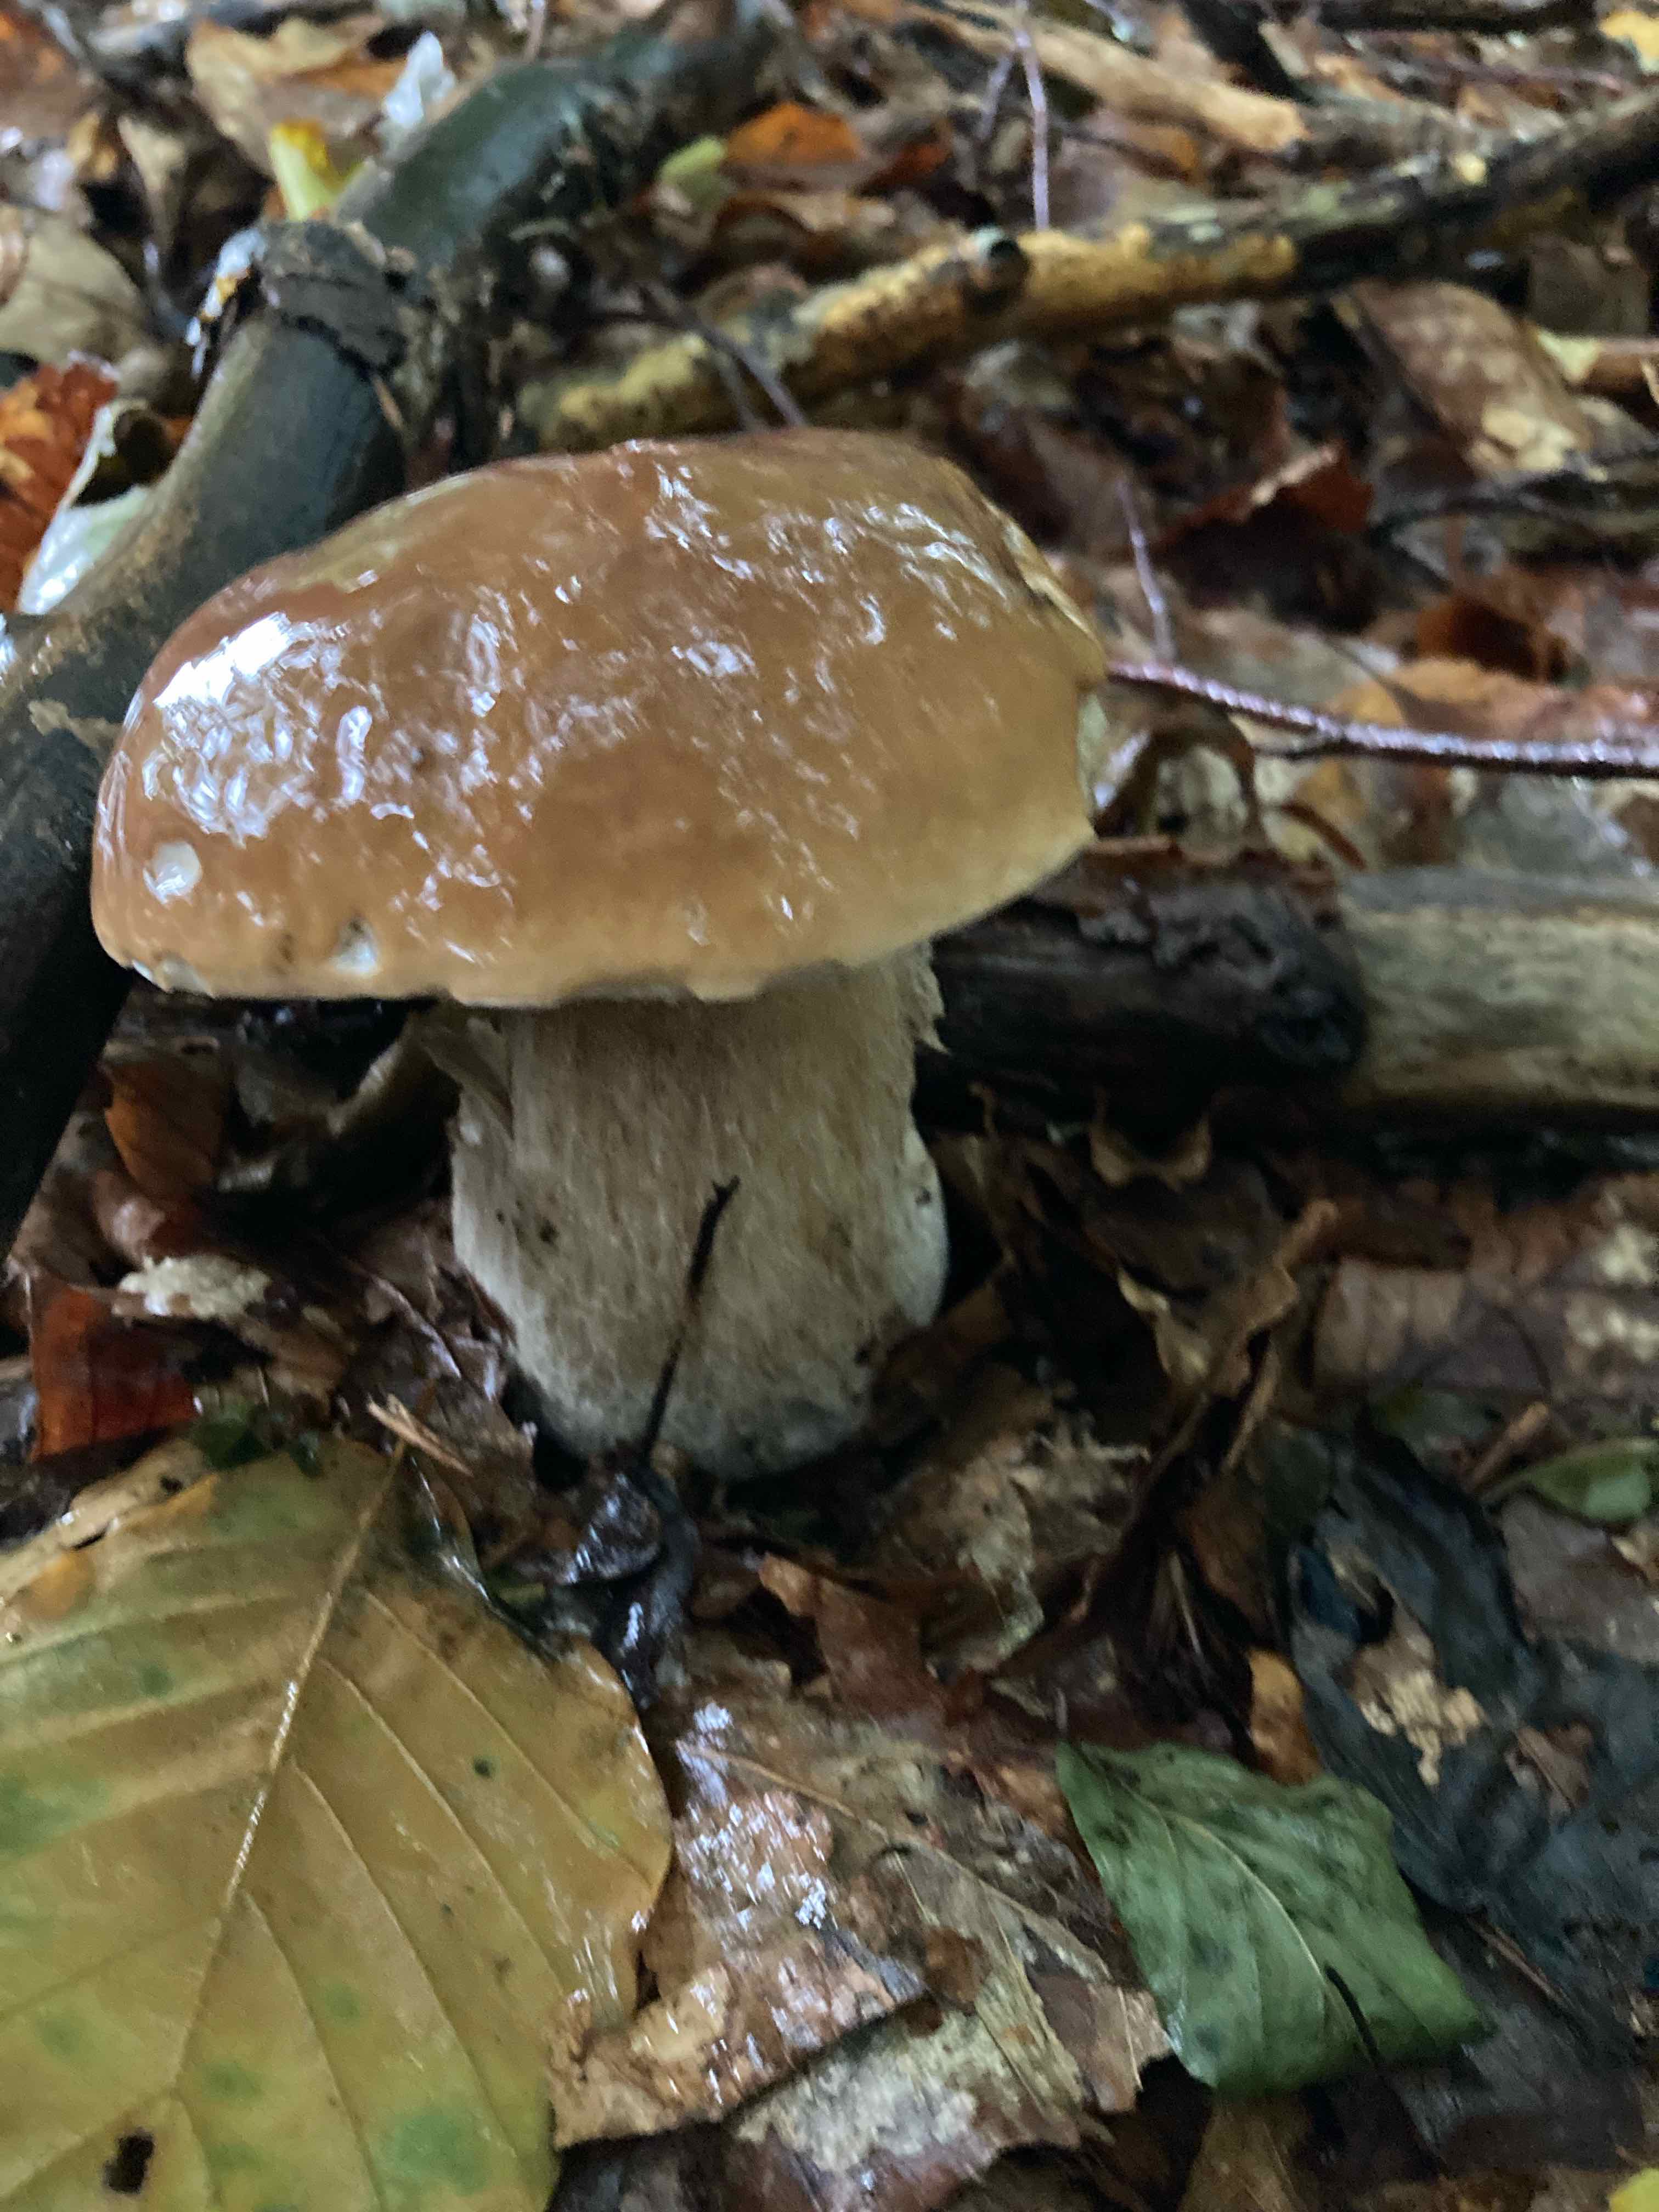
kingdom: Fungi
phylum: Basidiomycota
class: Agaricomycetes
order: Boletales
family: Boletaceae
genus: Boletus
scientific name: Boletus edulis
